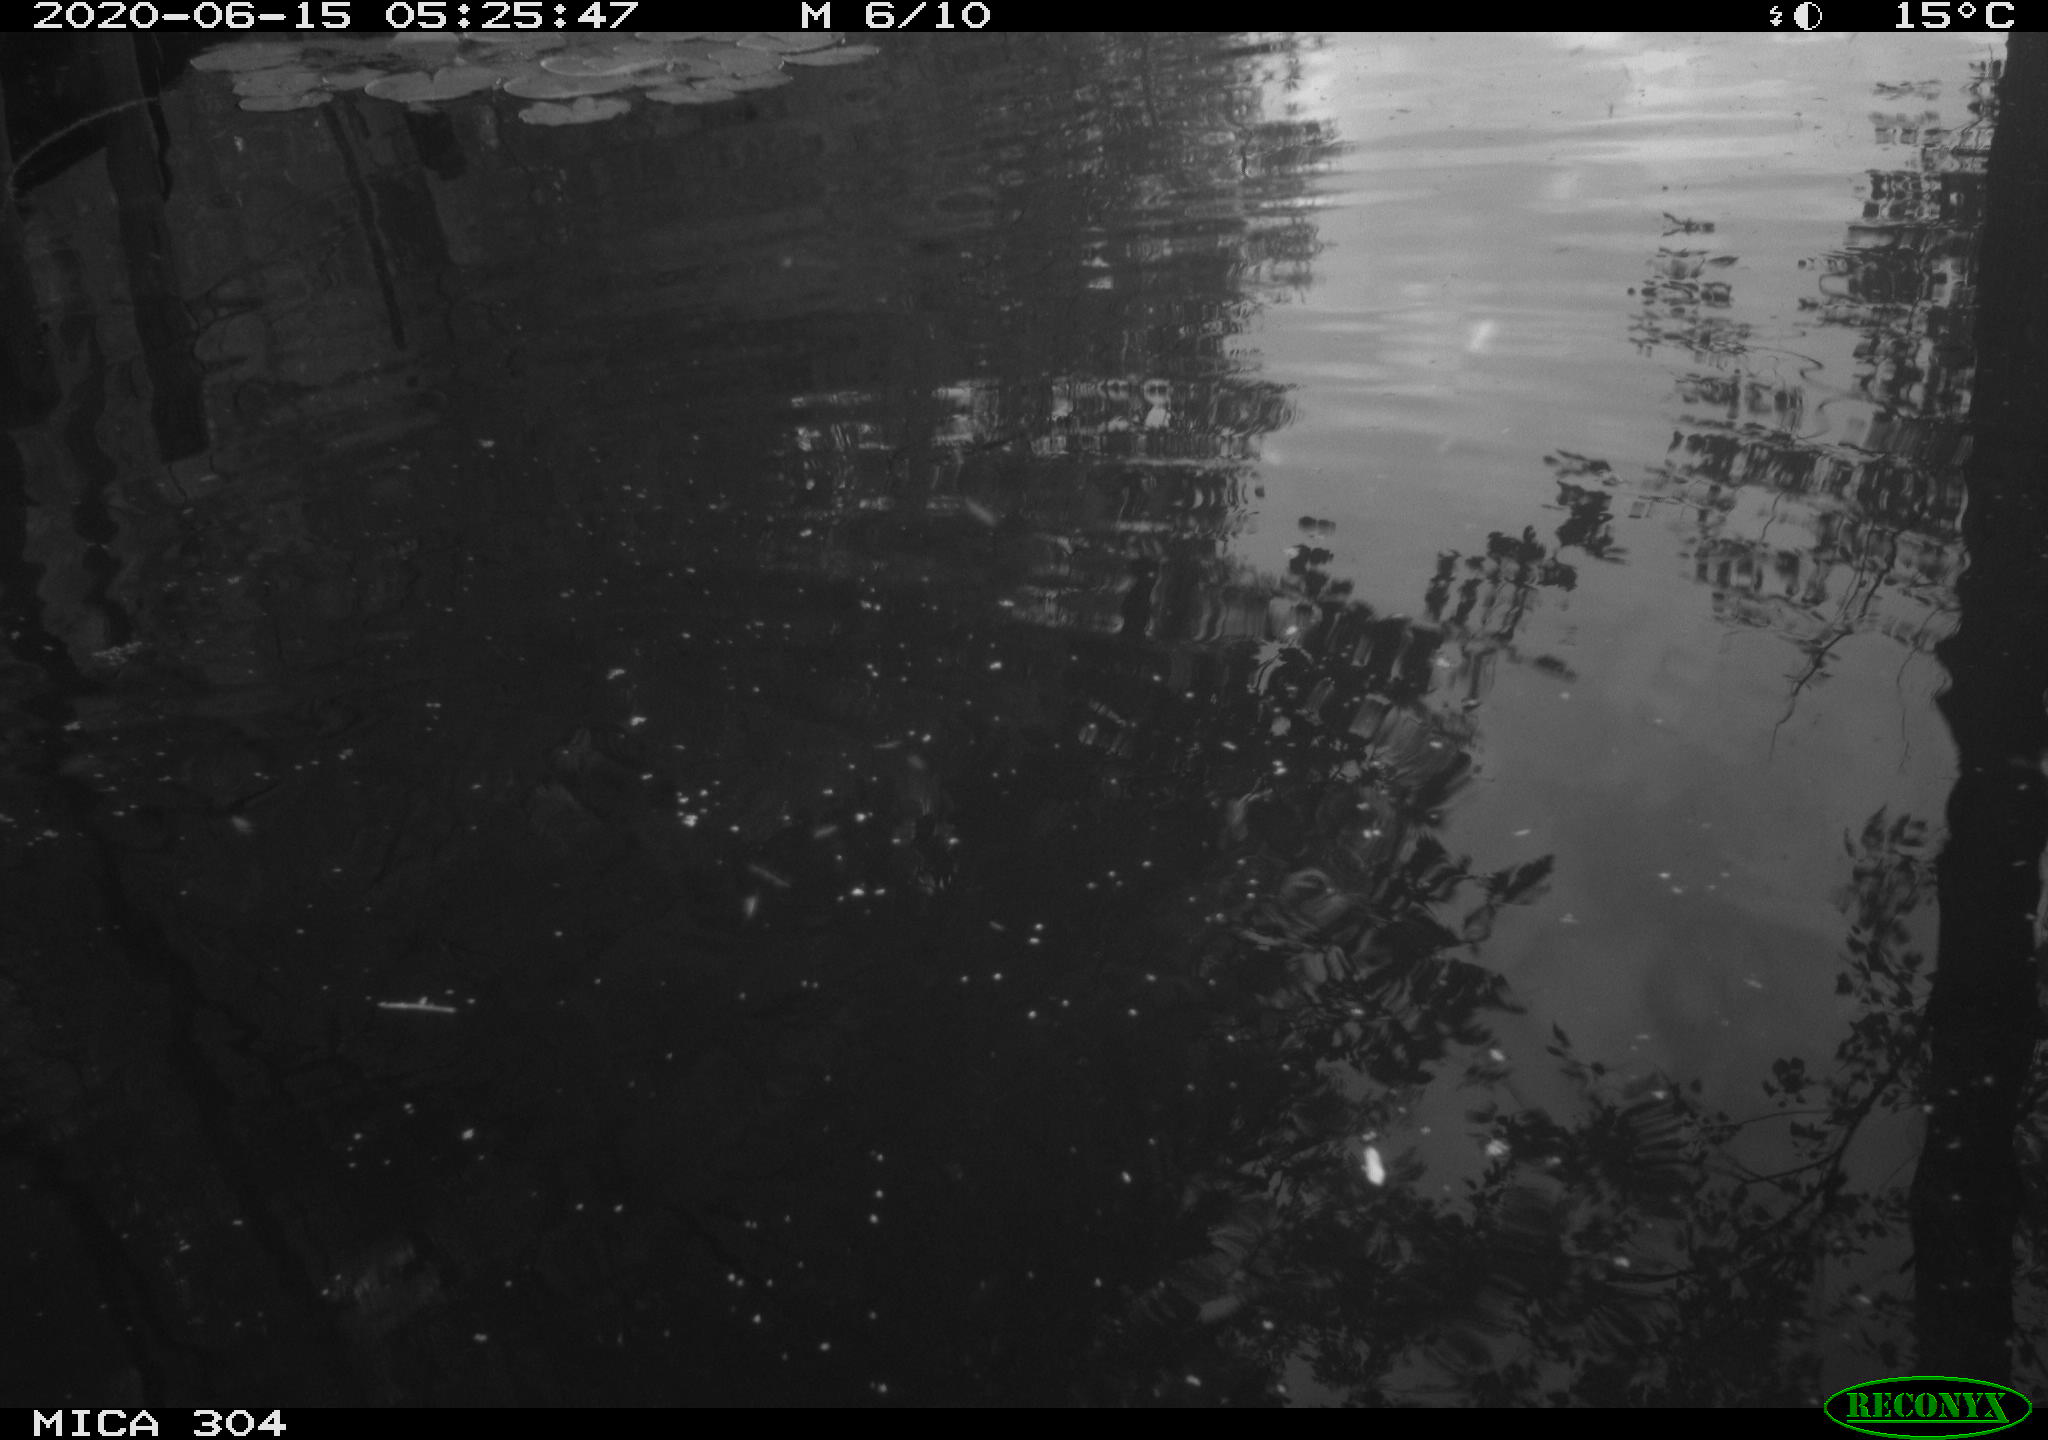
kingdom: Animalia
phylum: Chordata
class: Aves
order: Gruiformes
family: Rallidae
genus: Gallinula
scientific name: Gallinula chloropus
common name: Common moorhen
